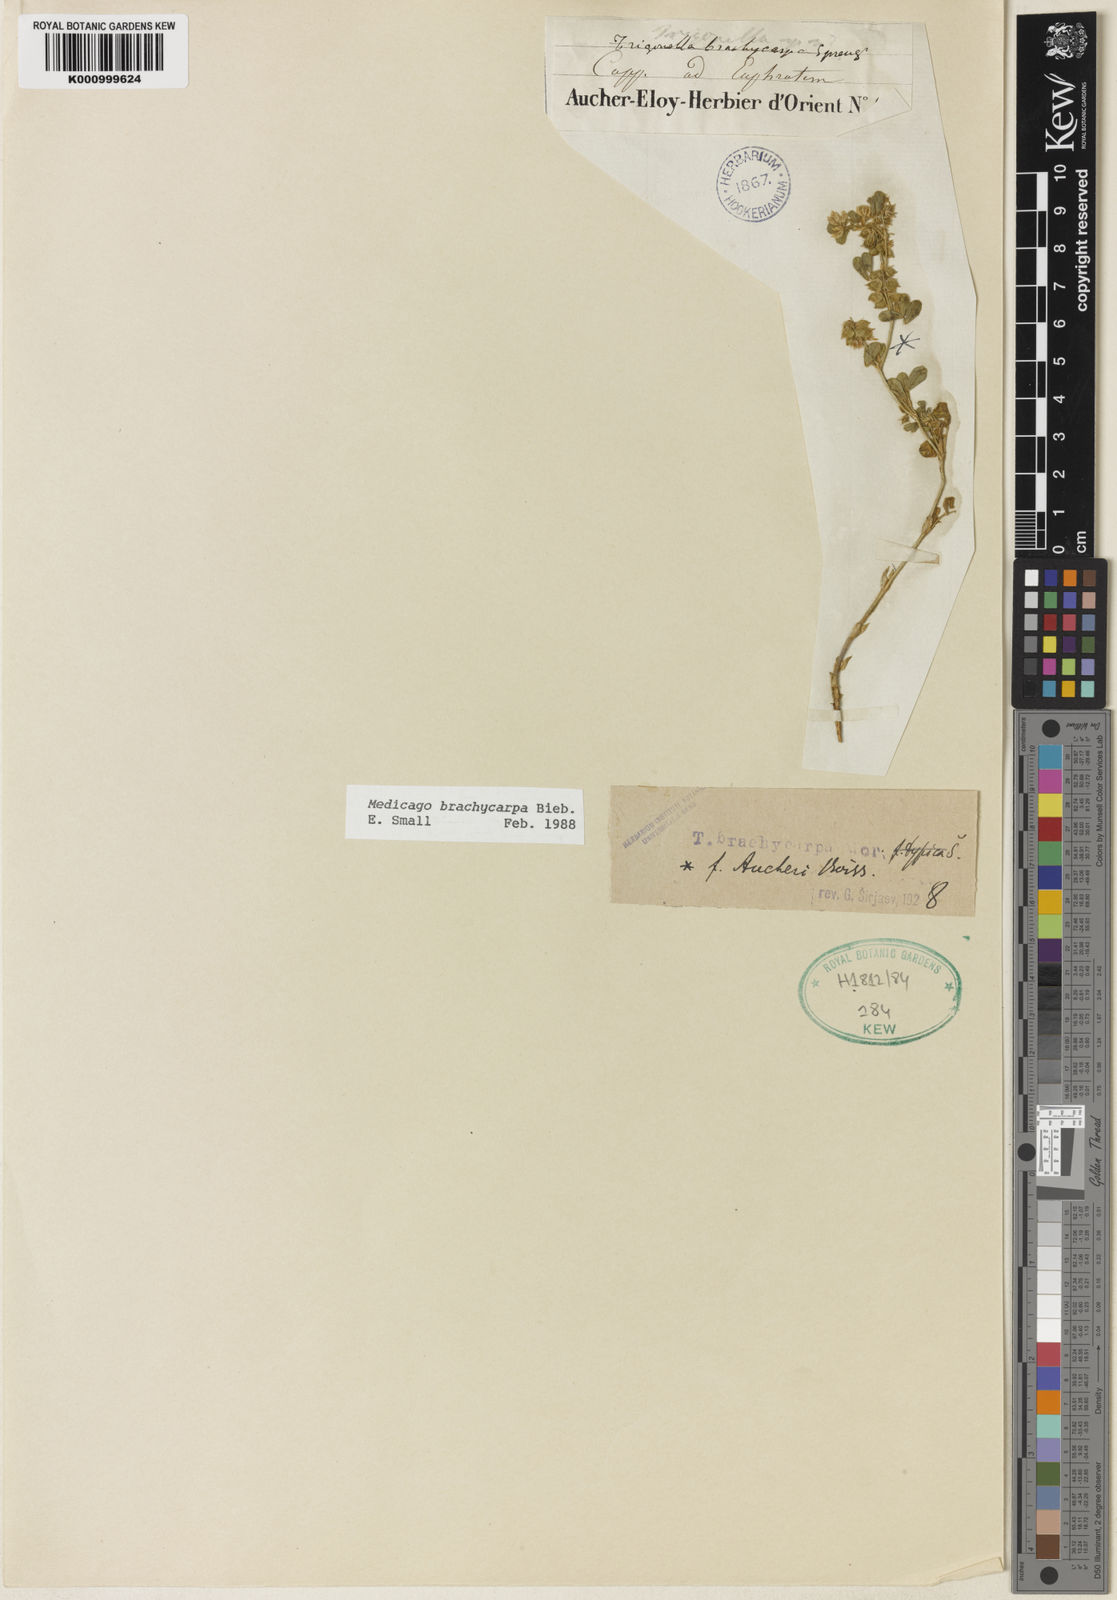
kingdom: Plantae
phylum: Tracheophyta
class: Magnoliopsida
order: Fabales
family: Fabaceae
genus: Medicago
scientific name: Medicago brachycarpa
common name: Short-fruited fenugreek
